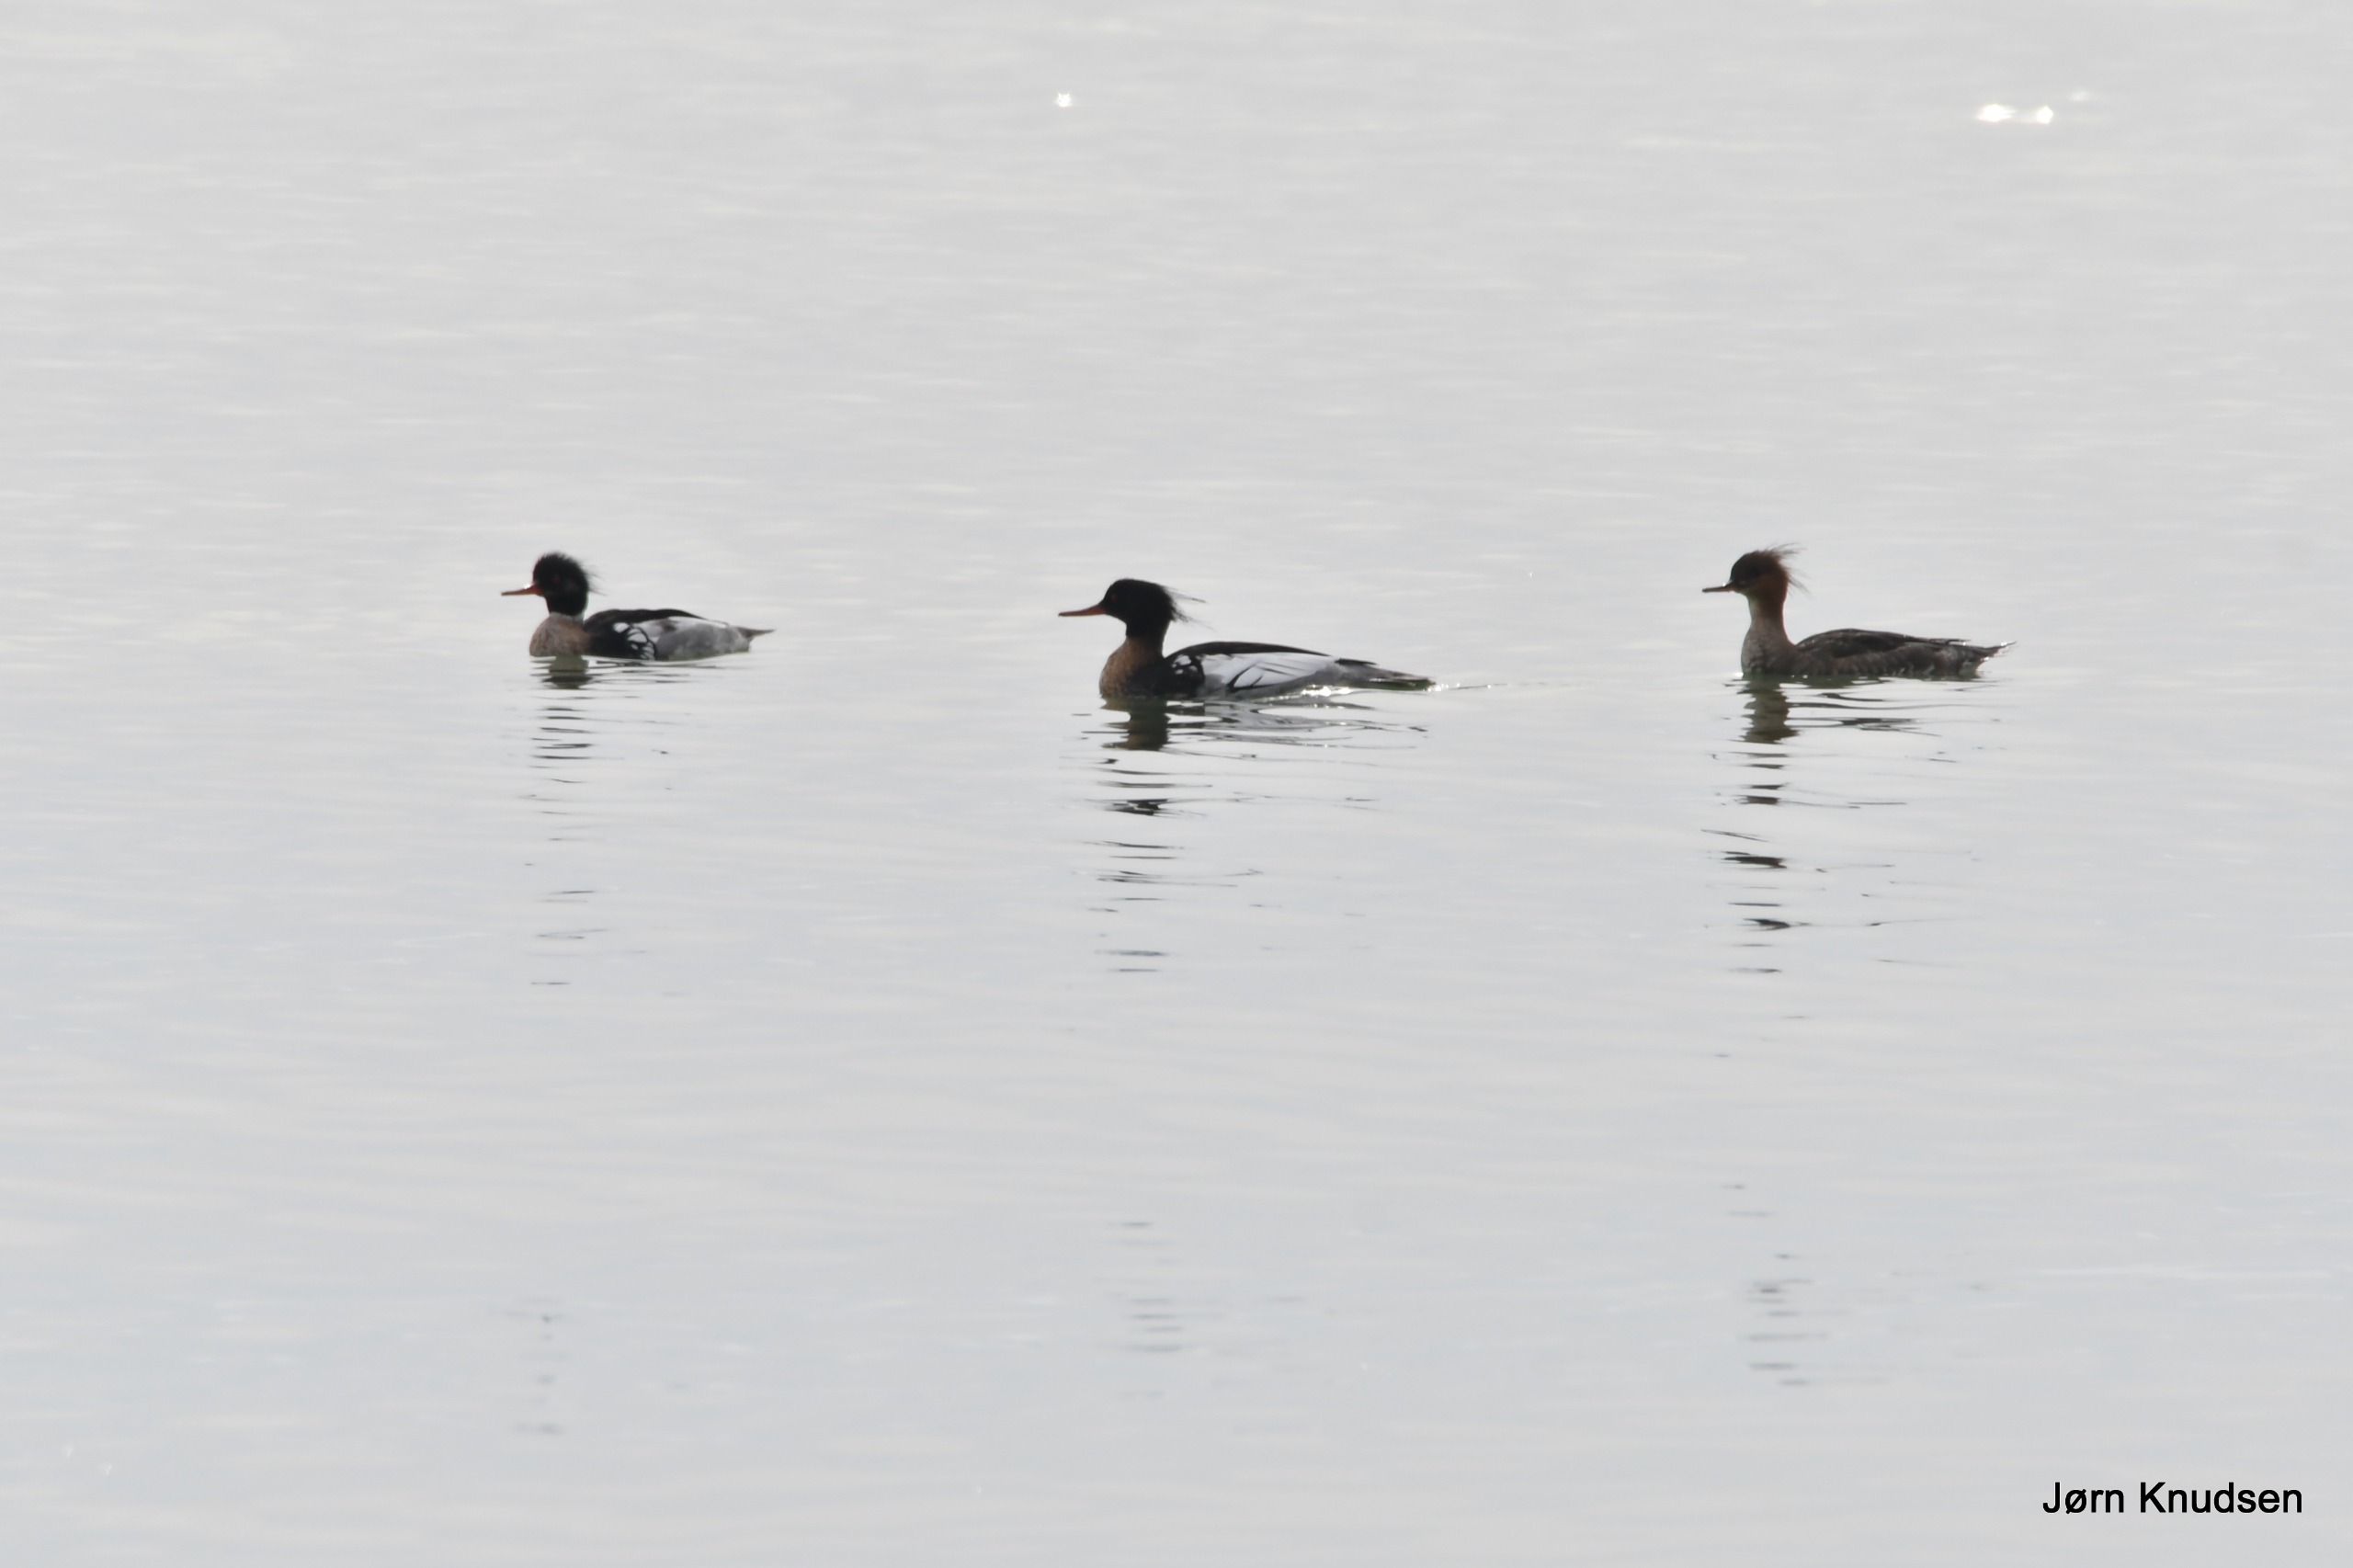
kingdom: Animalia
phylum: Chordata
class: Aves
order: Anseriformes
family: Anatidae
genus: Mergus
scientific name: Mergus serrator
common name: Toppet skallesluger
